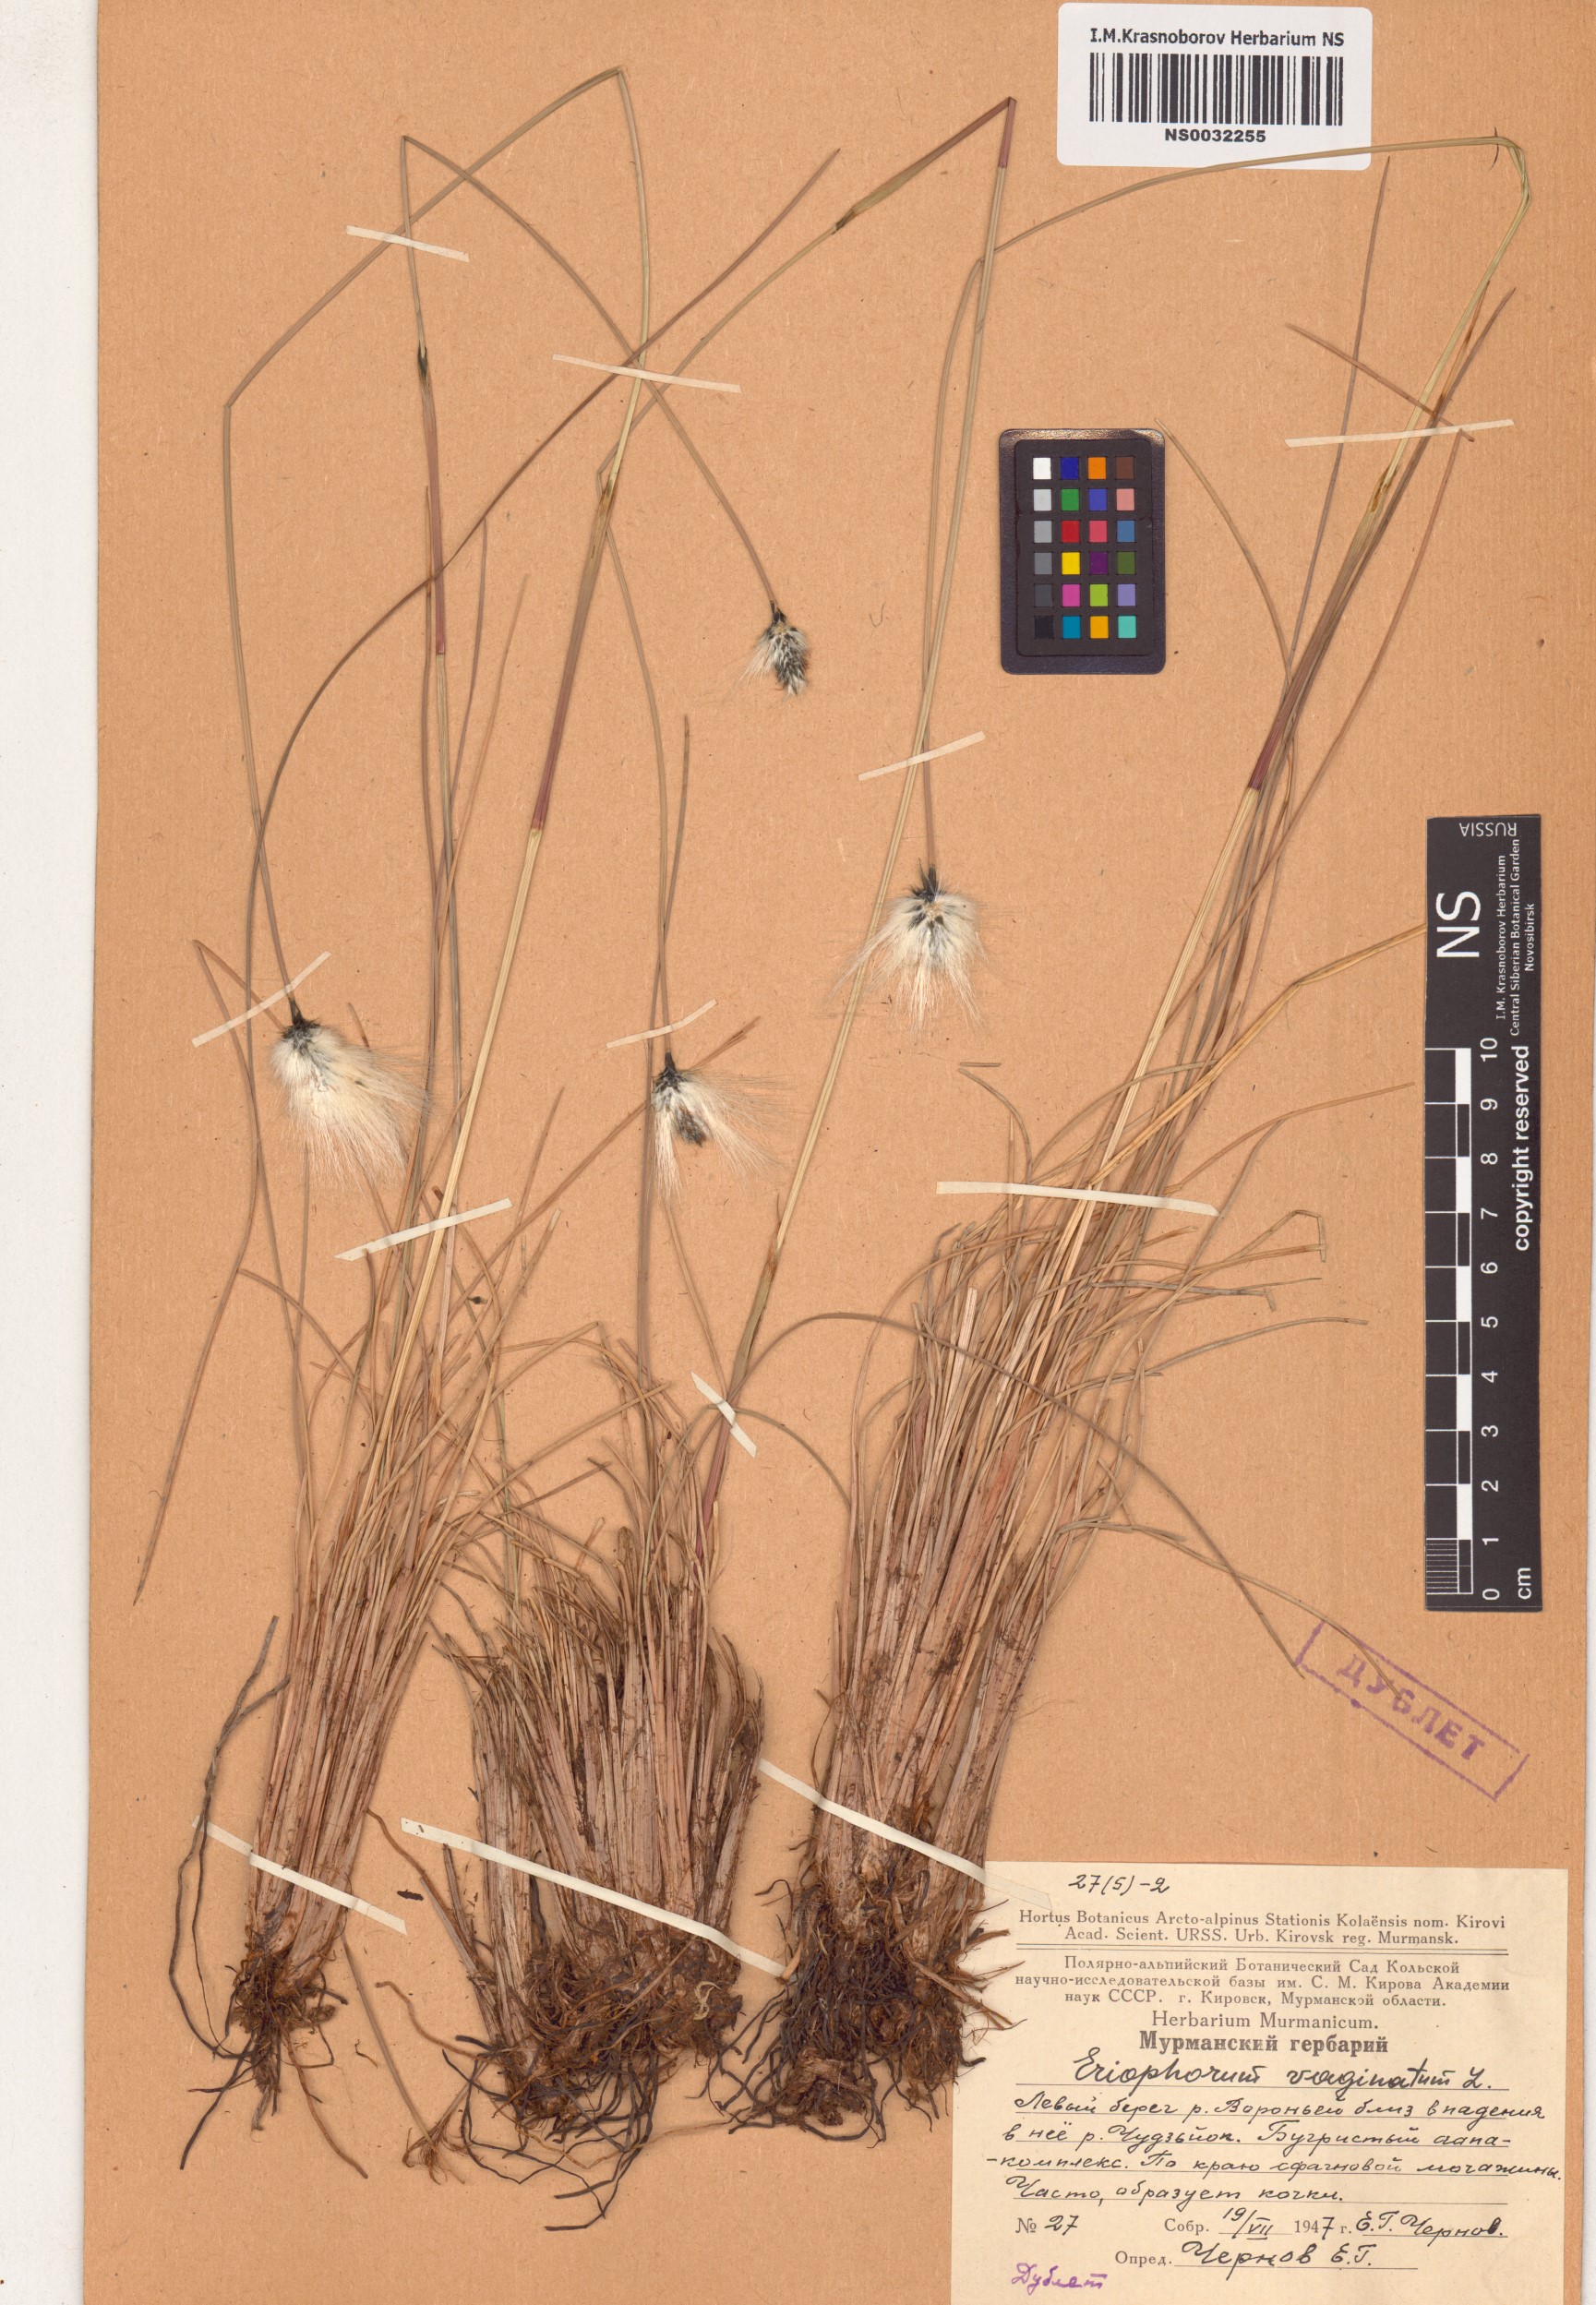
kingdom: Plantae
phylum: Tracheophyta
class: Liliopsida
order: Poales
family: Cyperaceae
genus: Eriophorum
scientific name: Eriophorum vaginatum
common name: Hare's-tail cottongrass
